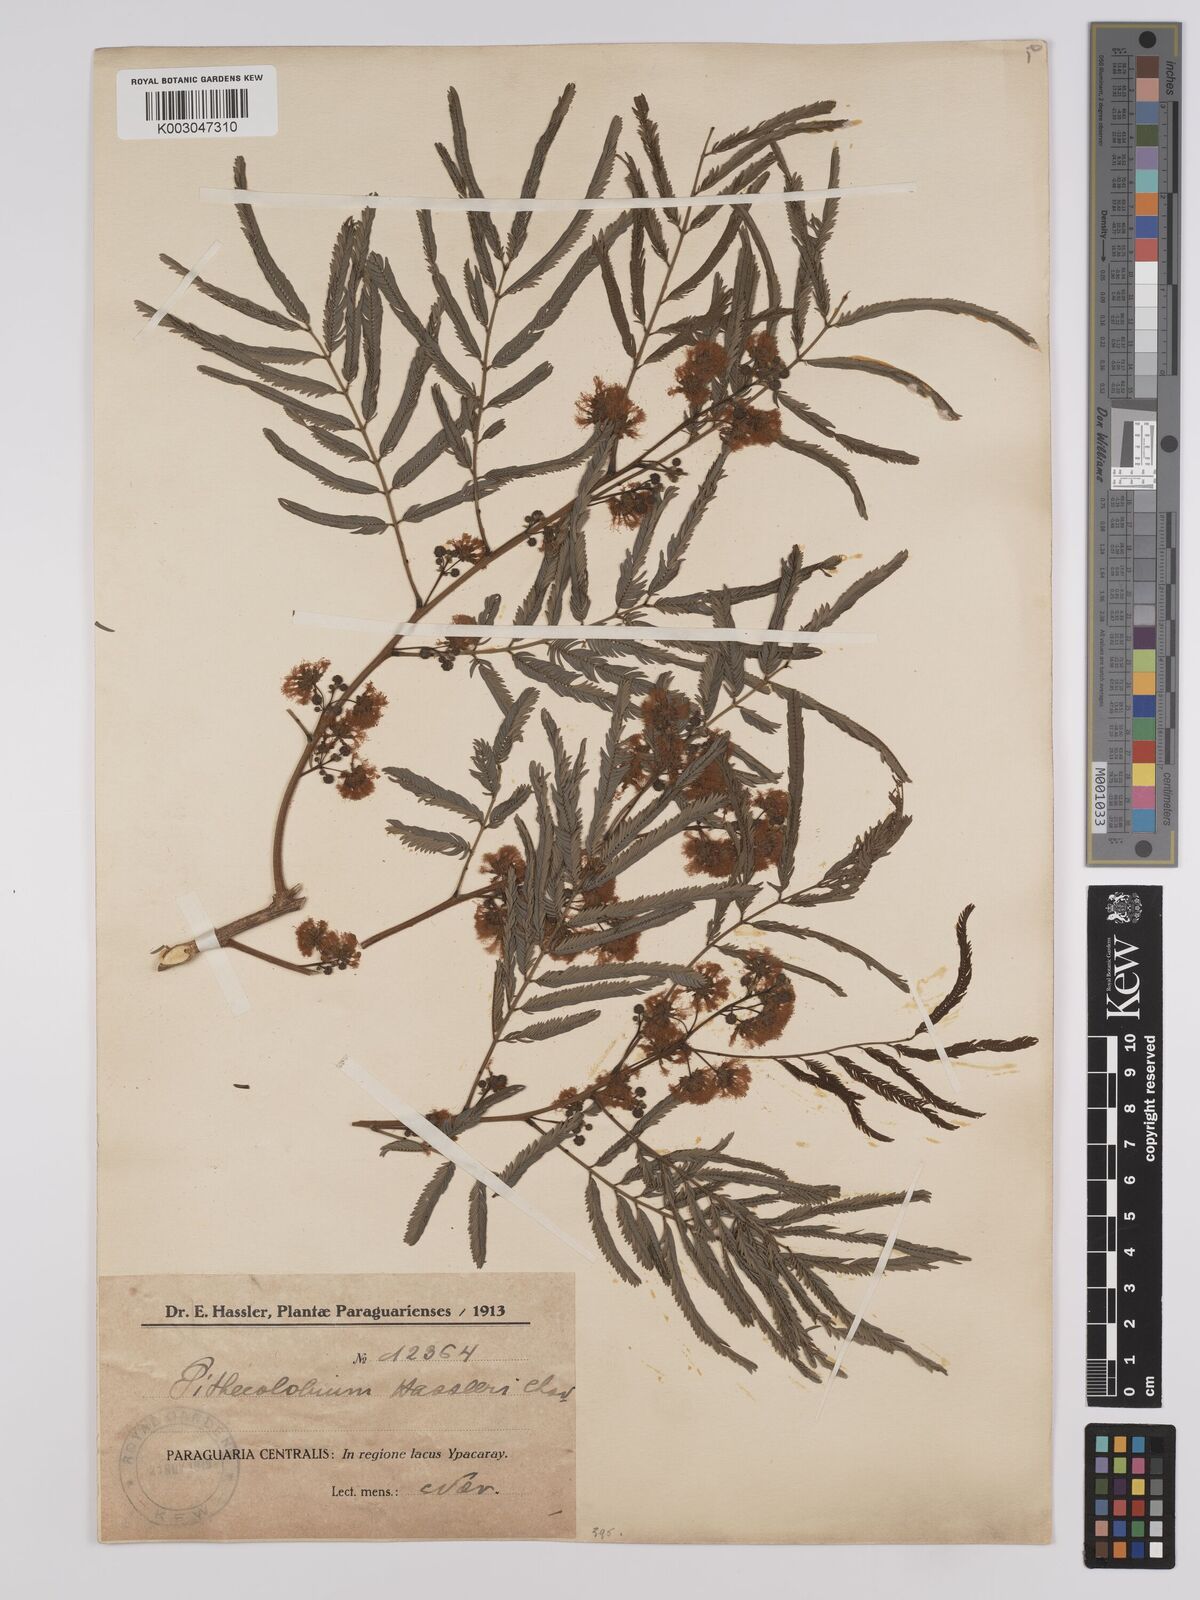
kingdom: Plantae
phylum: Tracheophyta
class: Magnoliopsida
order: Fabales
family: Fabaceae
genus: Albizia
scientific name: Albizia niopoides
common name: Silk tree
